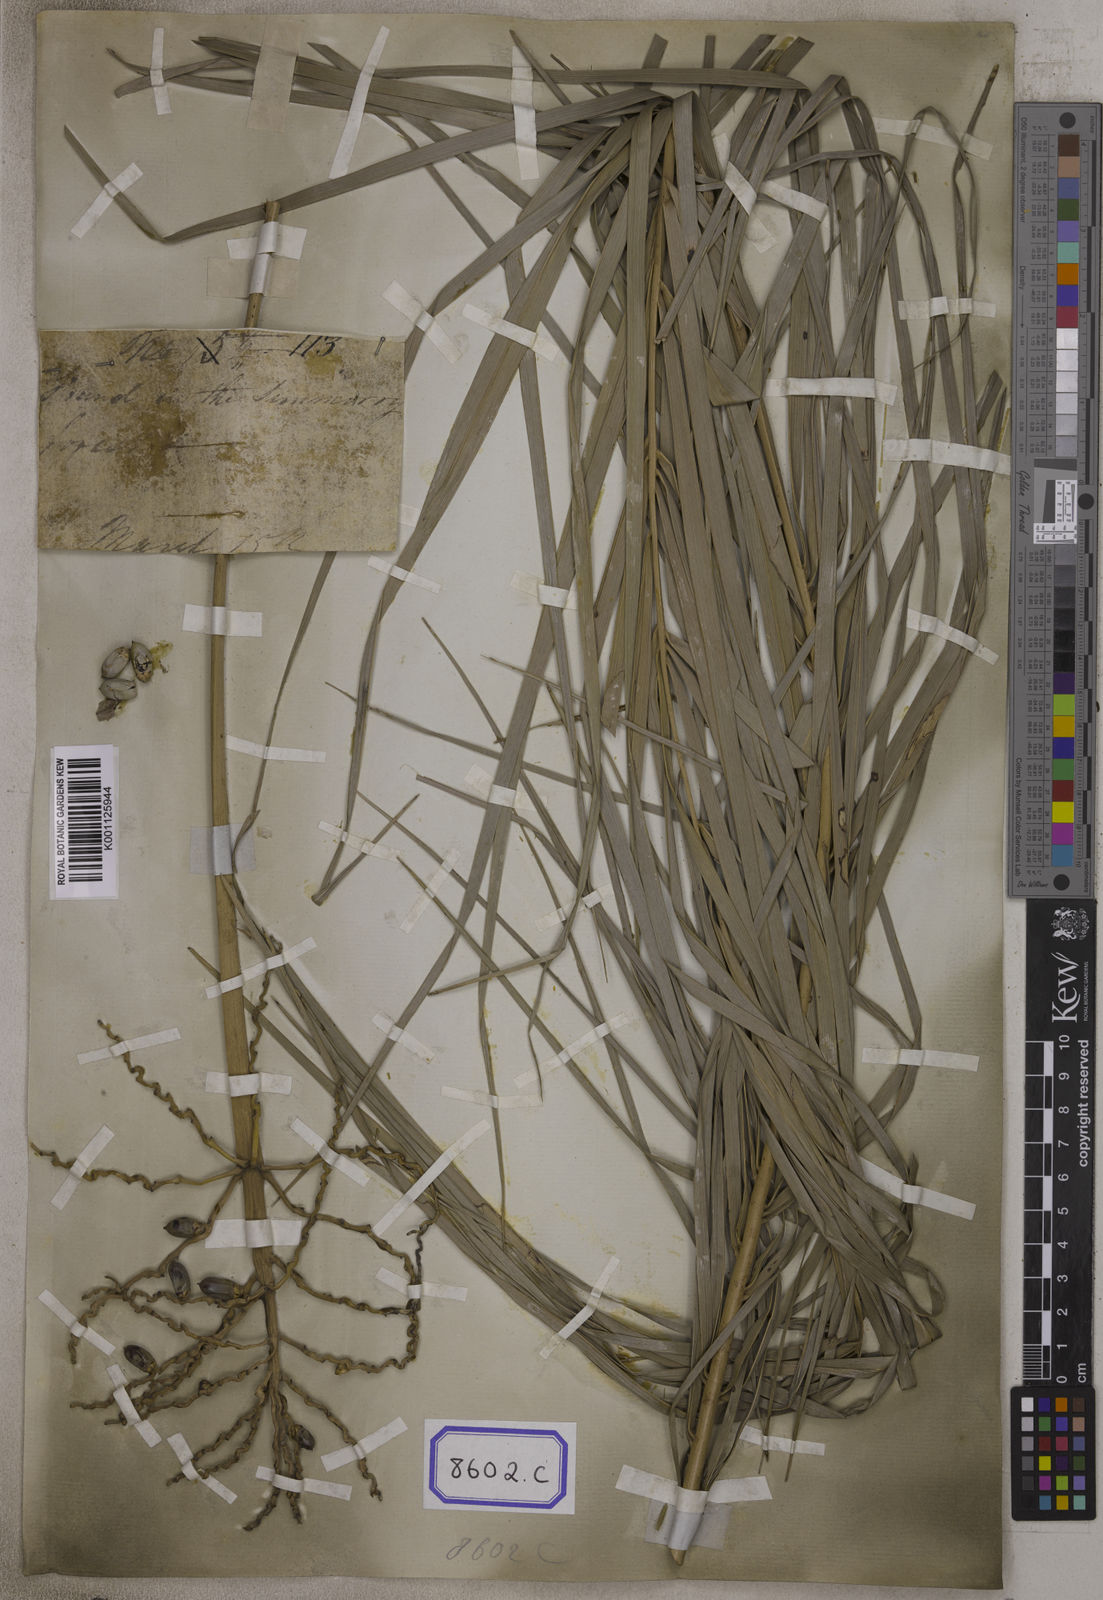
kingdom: Plantae
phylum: Tracheophyta
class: Liliopsida
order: Arecales
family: Arecaceae
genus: Phoenix
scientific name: Phoenix sylvestris
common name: Wild date palm
